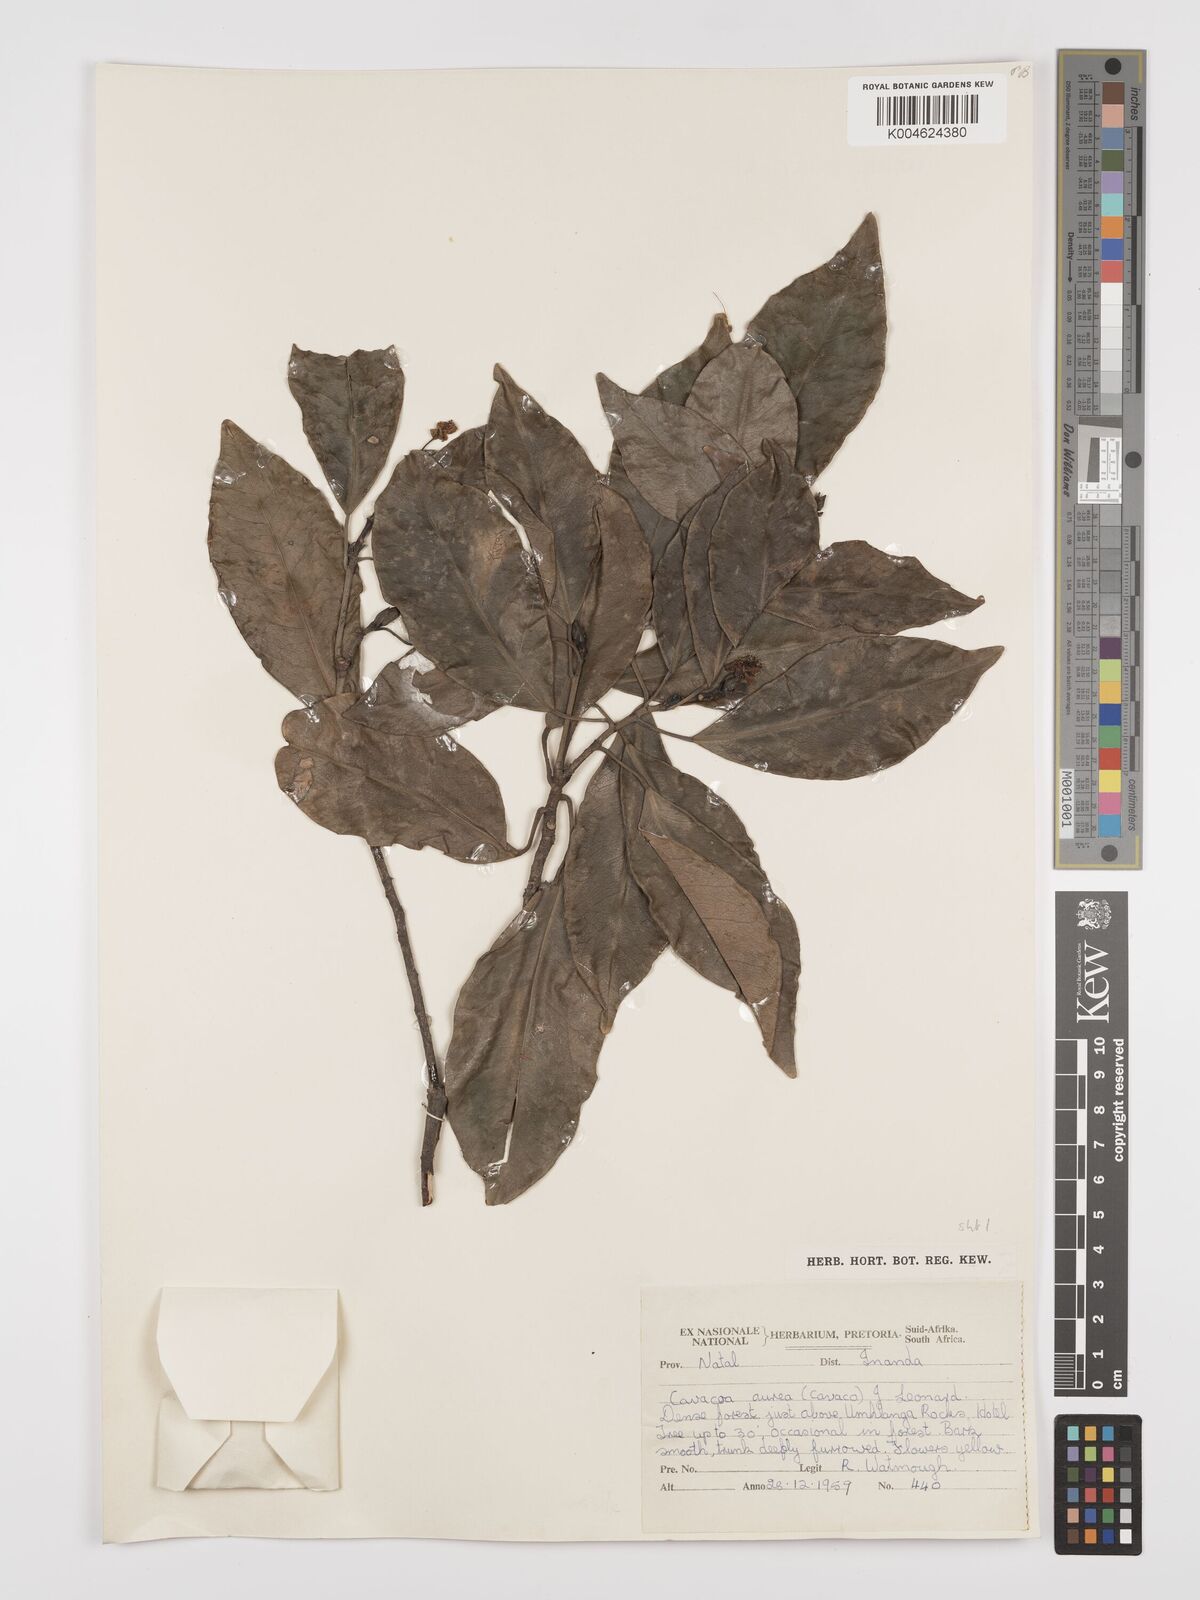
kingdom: Plantae
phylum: Tracheophyta
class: Magnoliopsida
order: Malpighiales
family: Euphorbiaceae
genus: Cavacoa
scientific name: Cavacoa aurea
